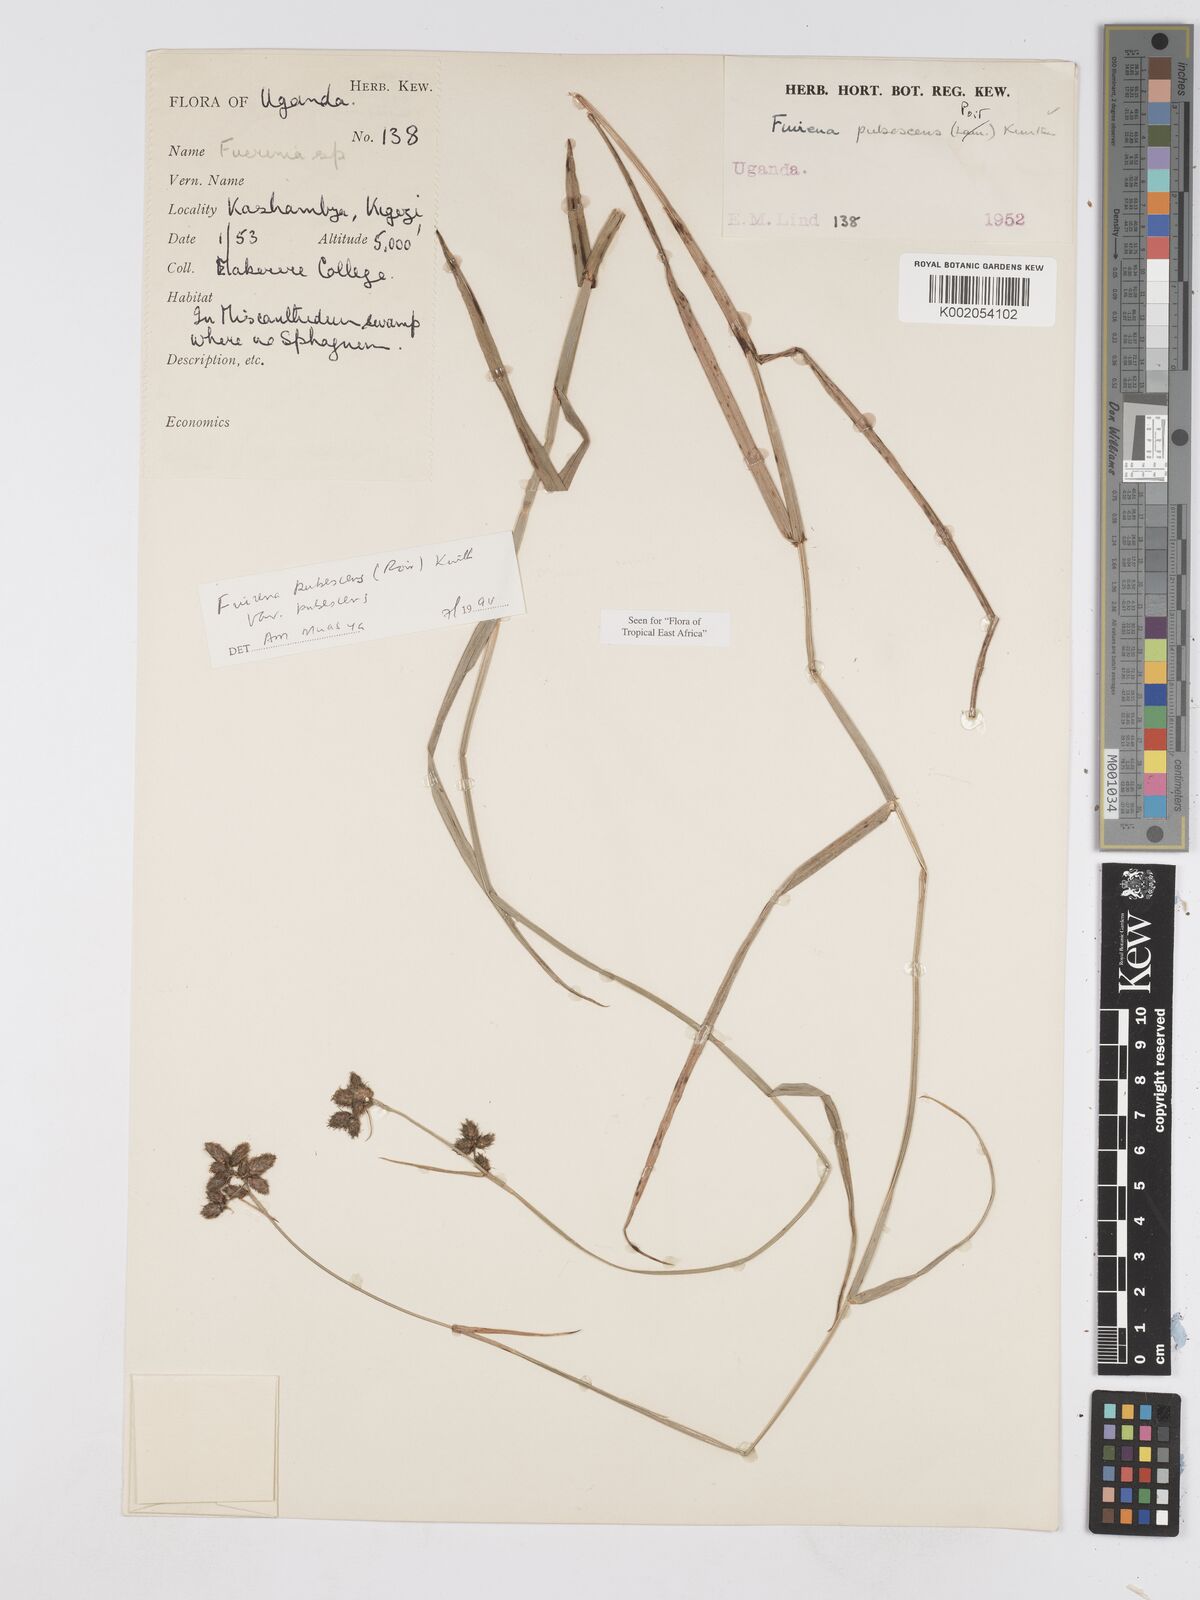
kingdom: Plantae
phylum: Tracheophyta
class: Liliopsida
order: Poales
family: Cyperaceae
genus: Fuirena
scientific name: Fuirena pubescens
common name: Hairy sedge
